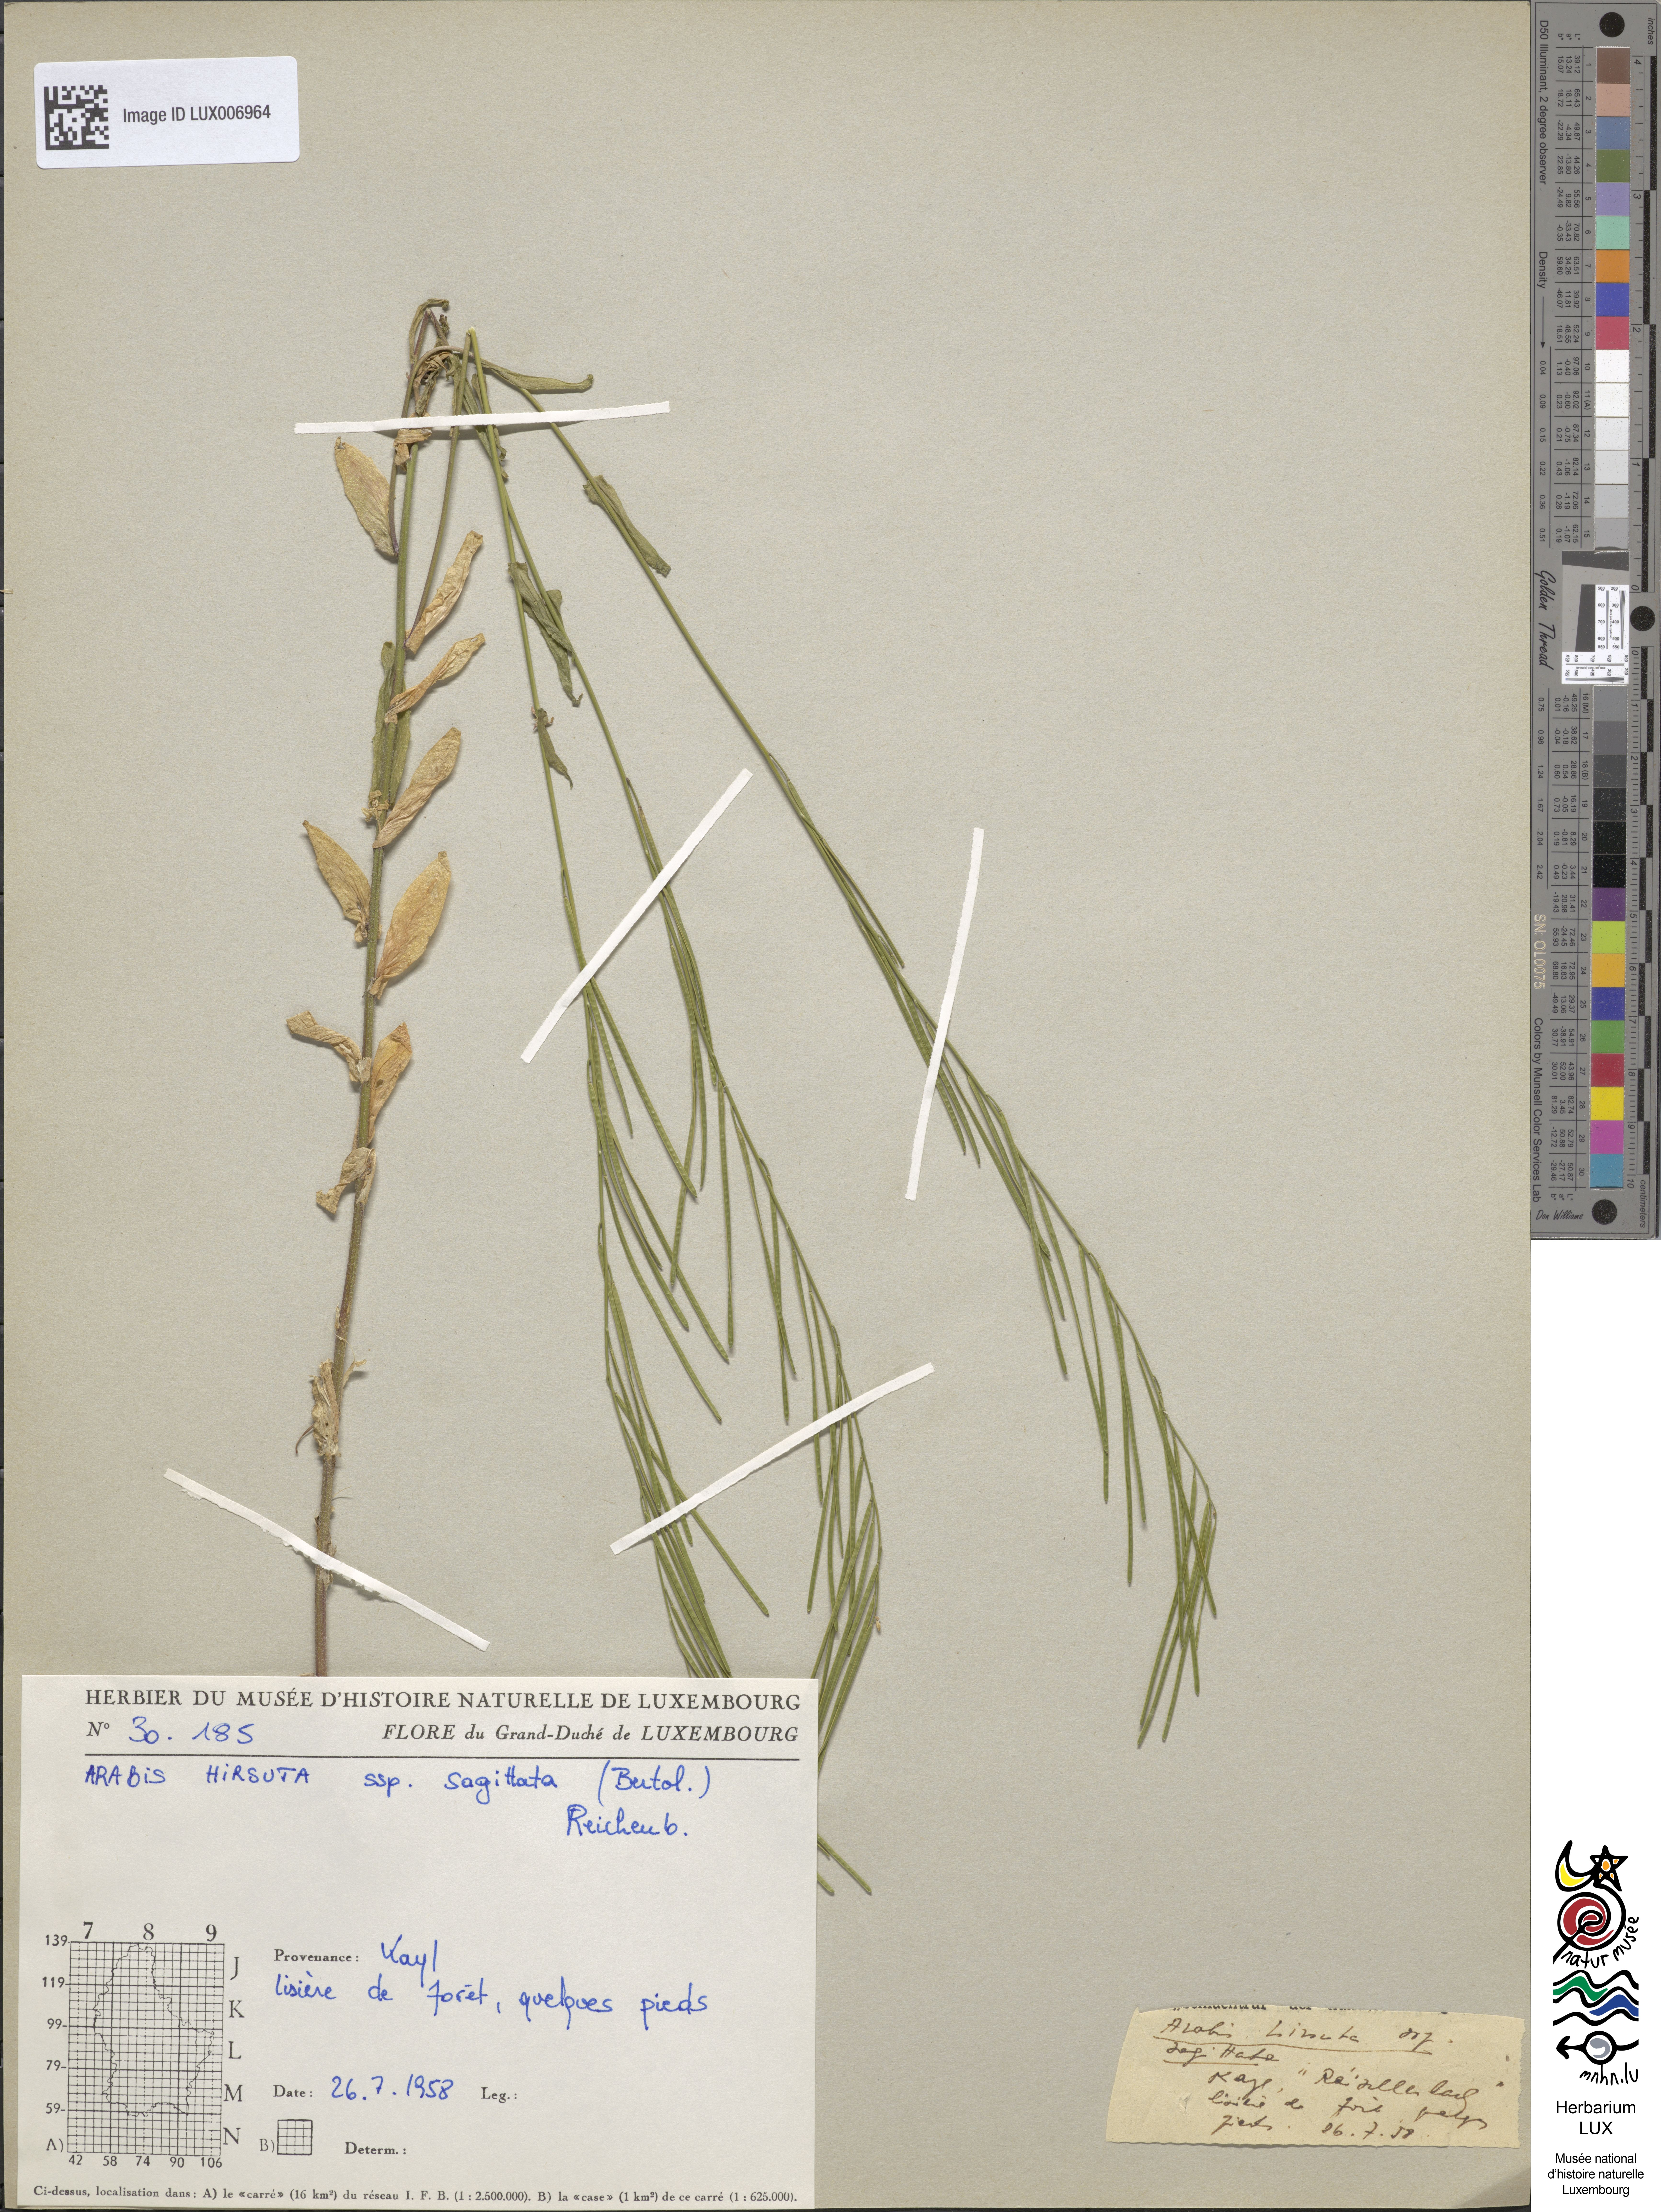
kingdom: Plantae
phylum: Tracheophyta
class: Magnoliopsida
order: Brassicales
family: Brassicaceae
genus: Arabis
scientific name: Arabis sagittata
